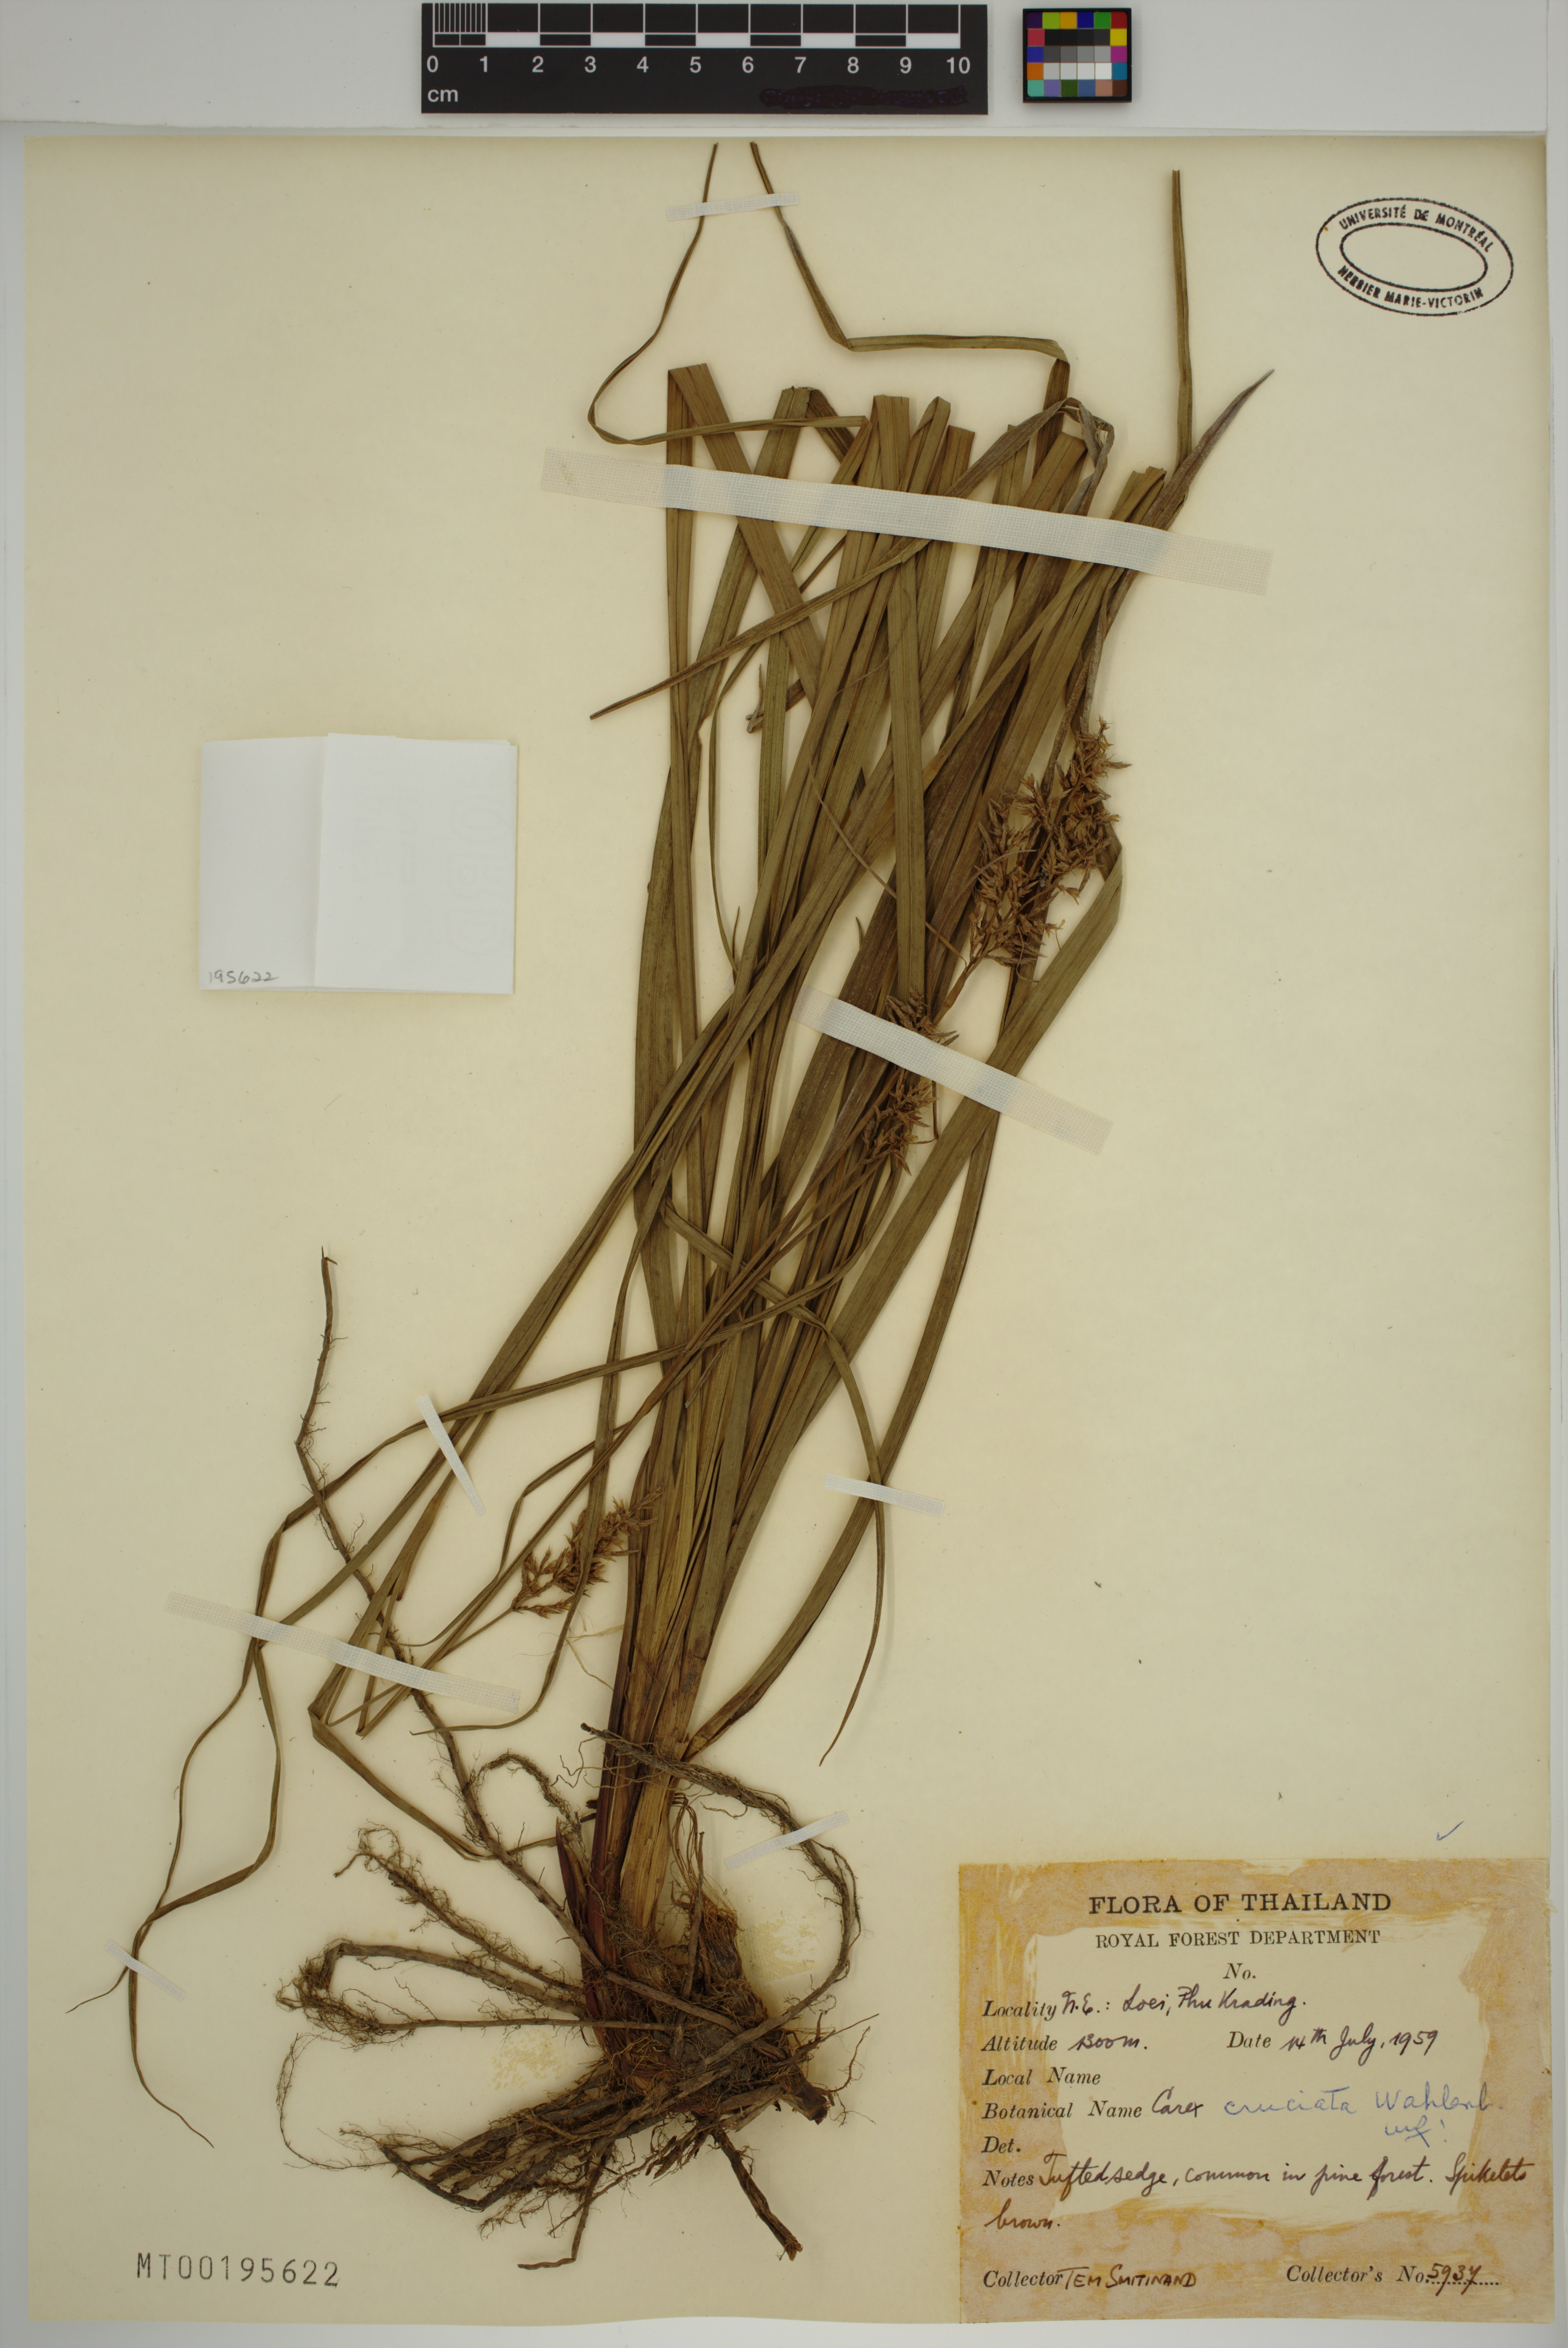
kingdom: Plantae
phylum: Tracheophyta
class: Liliopsida
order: Poales
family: Cyperaceae
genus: Carex
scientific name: Carex cruciata
